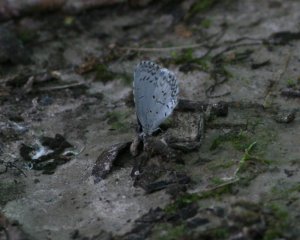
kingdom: Animalia
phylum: Arthropoda
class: Insecta
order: Lepidoptera
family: Lycaenidae
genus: Celastrina
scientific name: Celastrina lucia
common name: Northern Spring Azure
